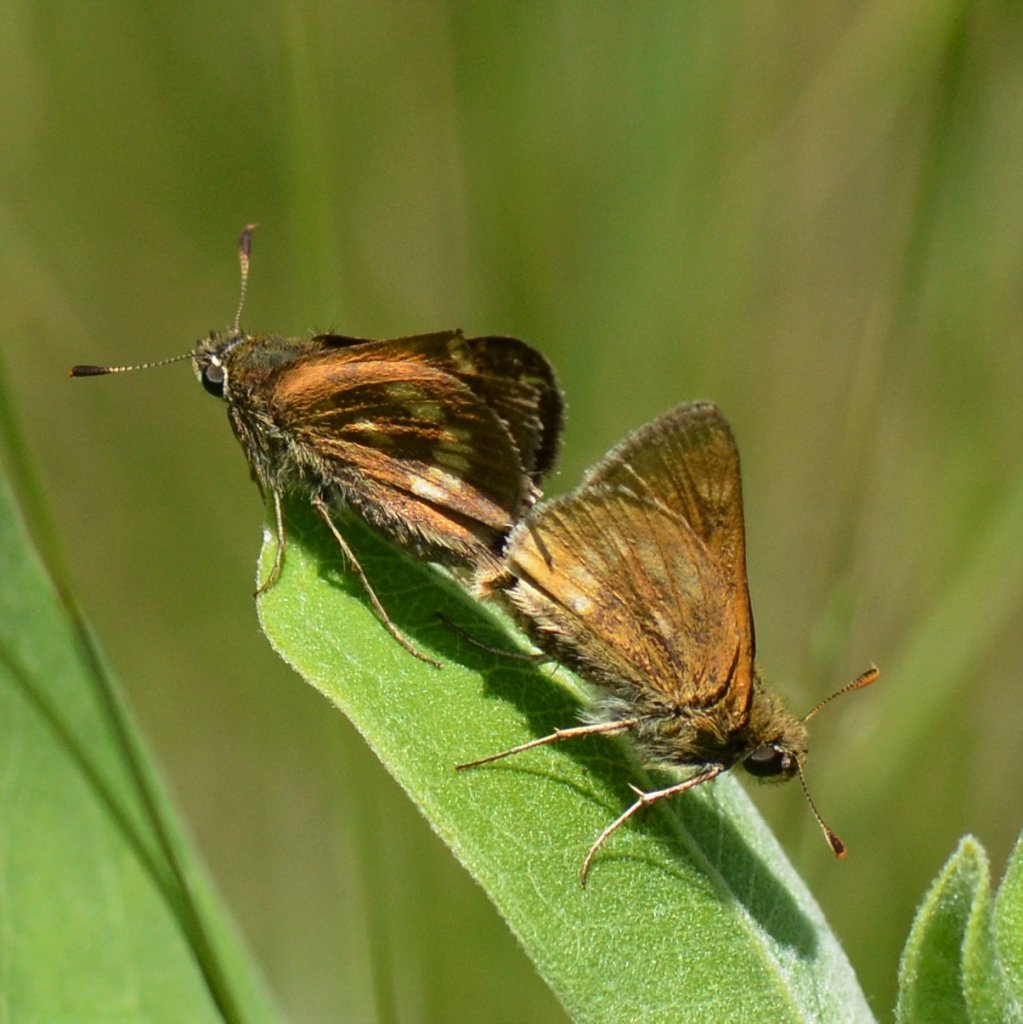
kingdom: Animalia
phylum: Arthropoda
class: Insecta
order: Lepidoptera
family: Hesperiidae
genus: Polites
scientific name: Polites
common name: Long Dash Skipper
